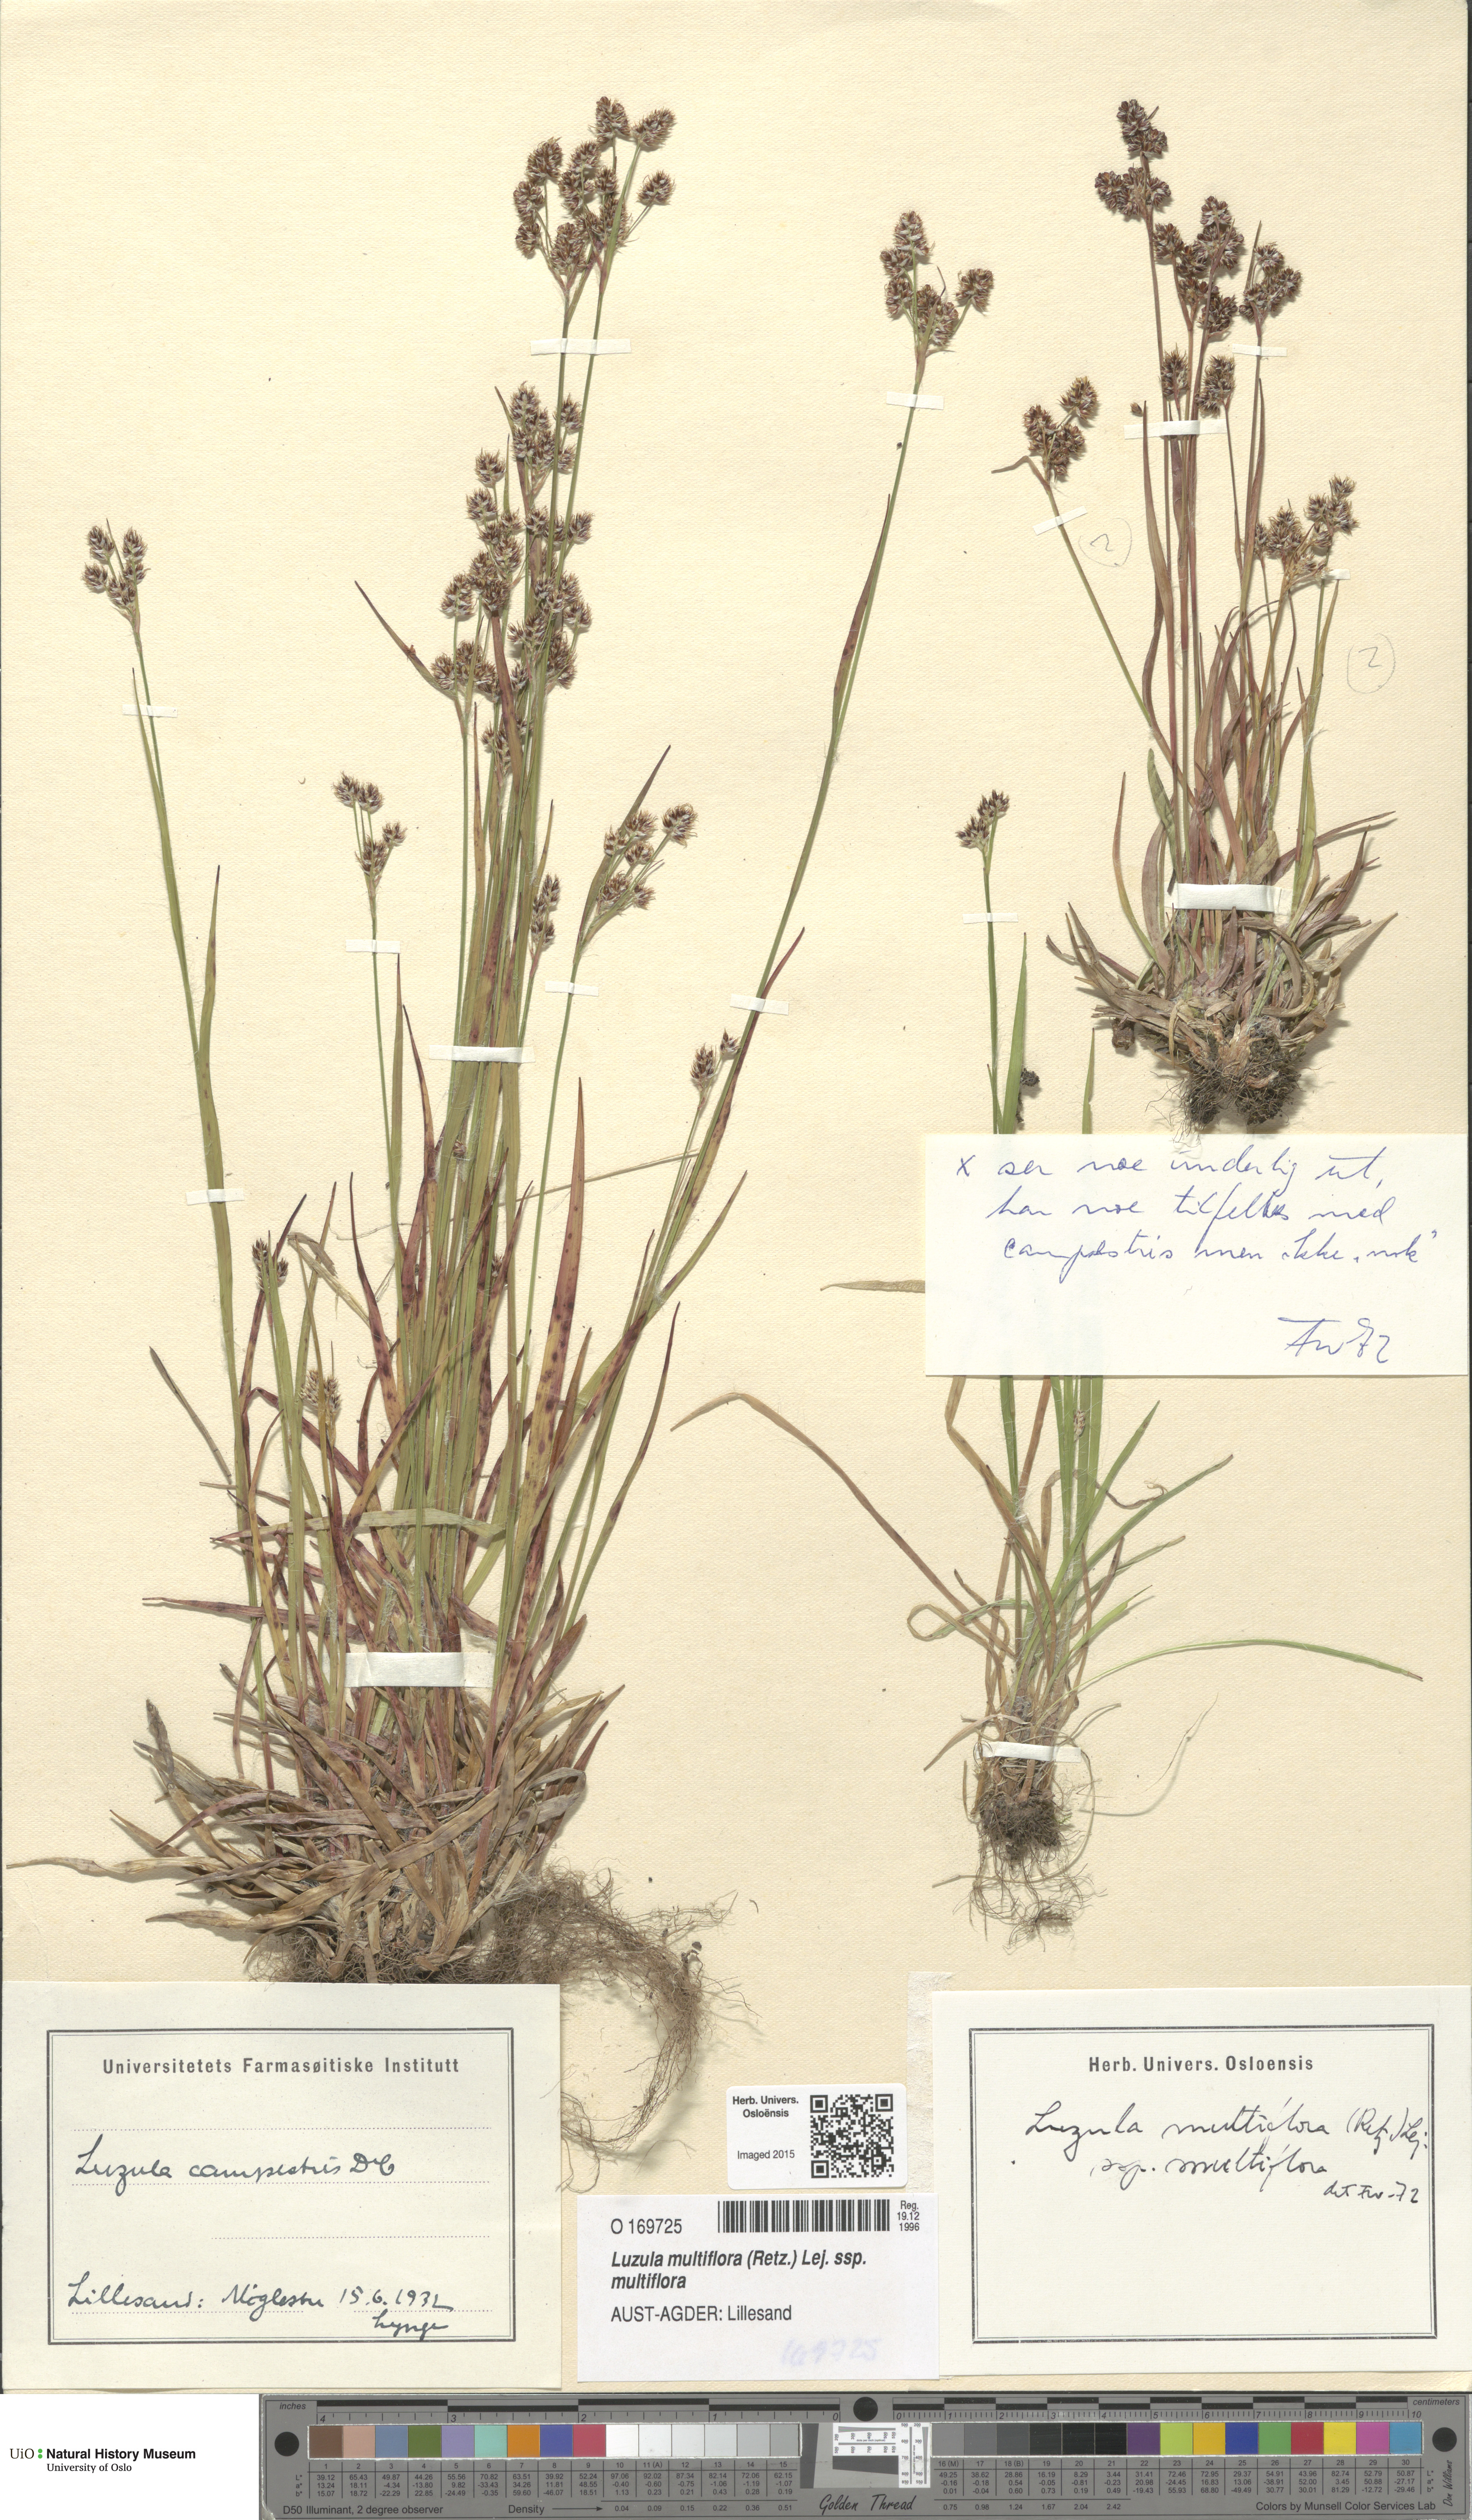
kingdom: Plantae
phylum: Tracheophyta
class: Liliopsida
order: Poales
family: Juncaceae
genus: Luzula
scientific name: Luzula multiflora
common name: Heath wood-rush
